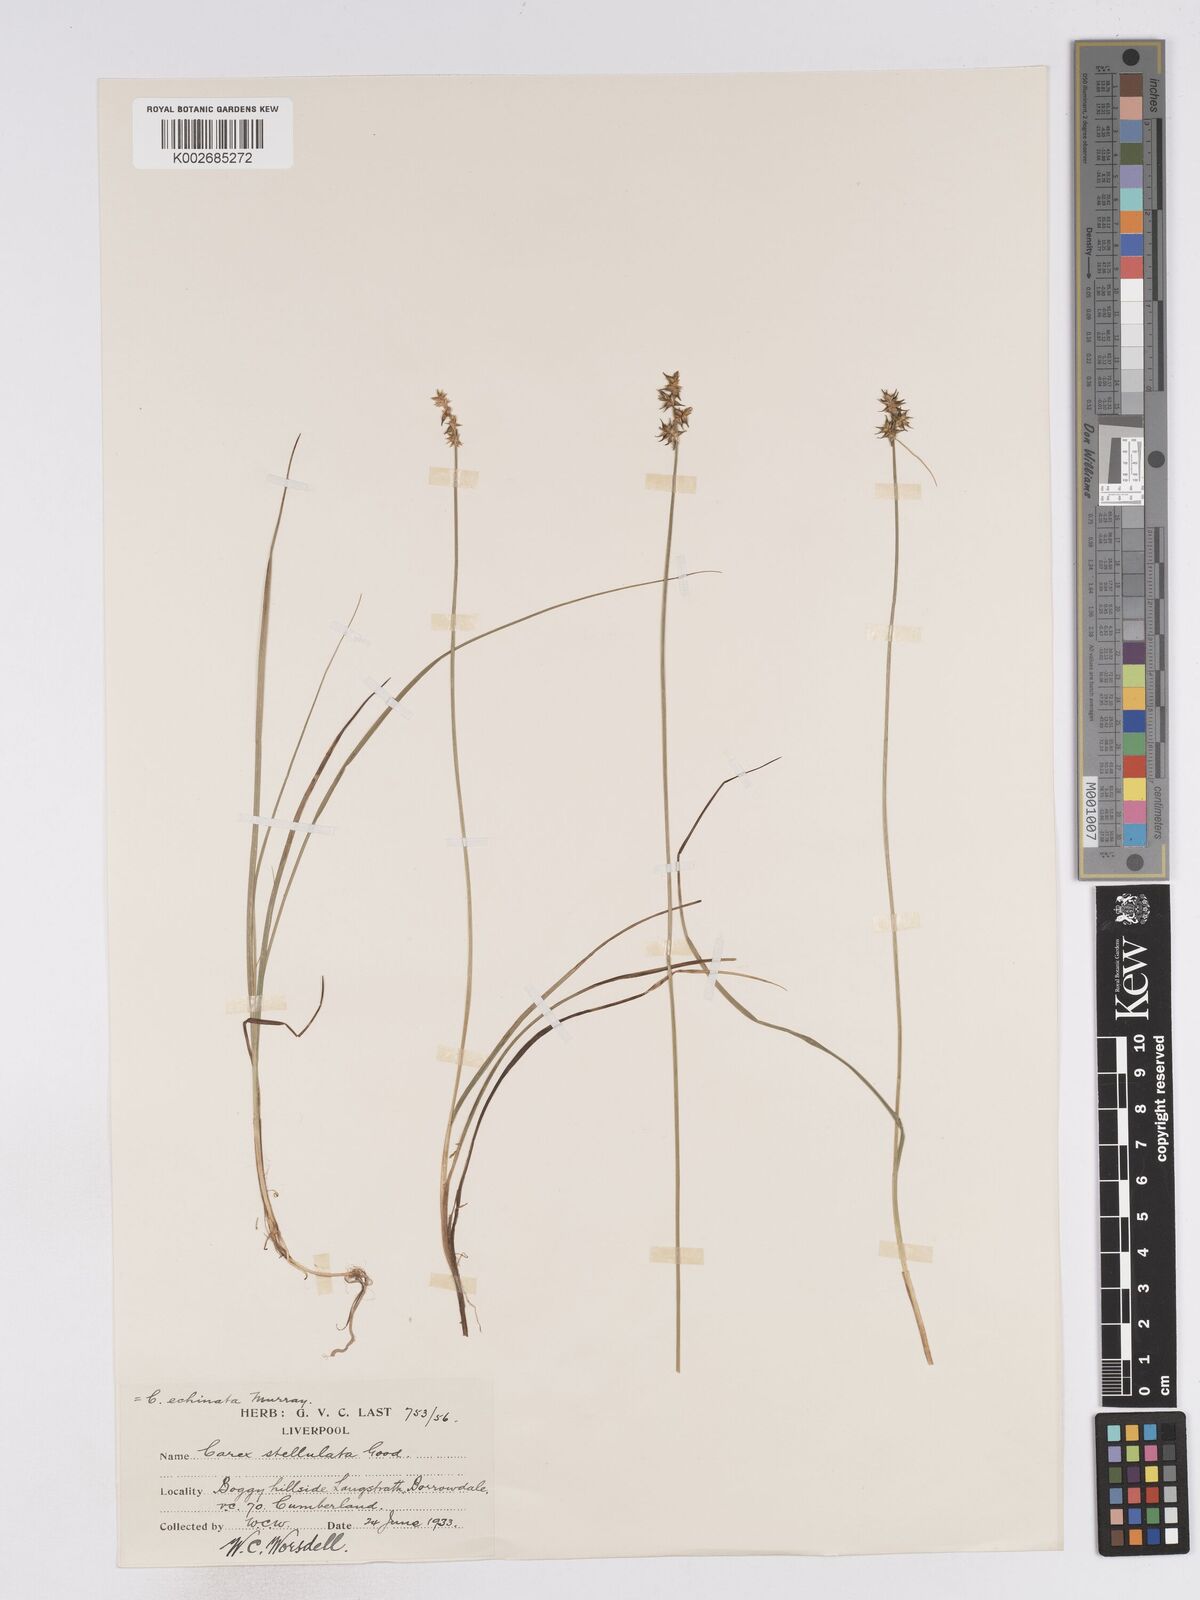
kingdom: Plantae
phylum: Tracheophyta
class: Liliopsida
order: Poales
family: Cyperaceae
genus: Carex
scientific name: Carex echinata
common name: Star sedge
